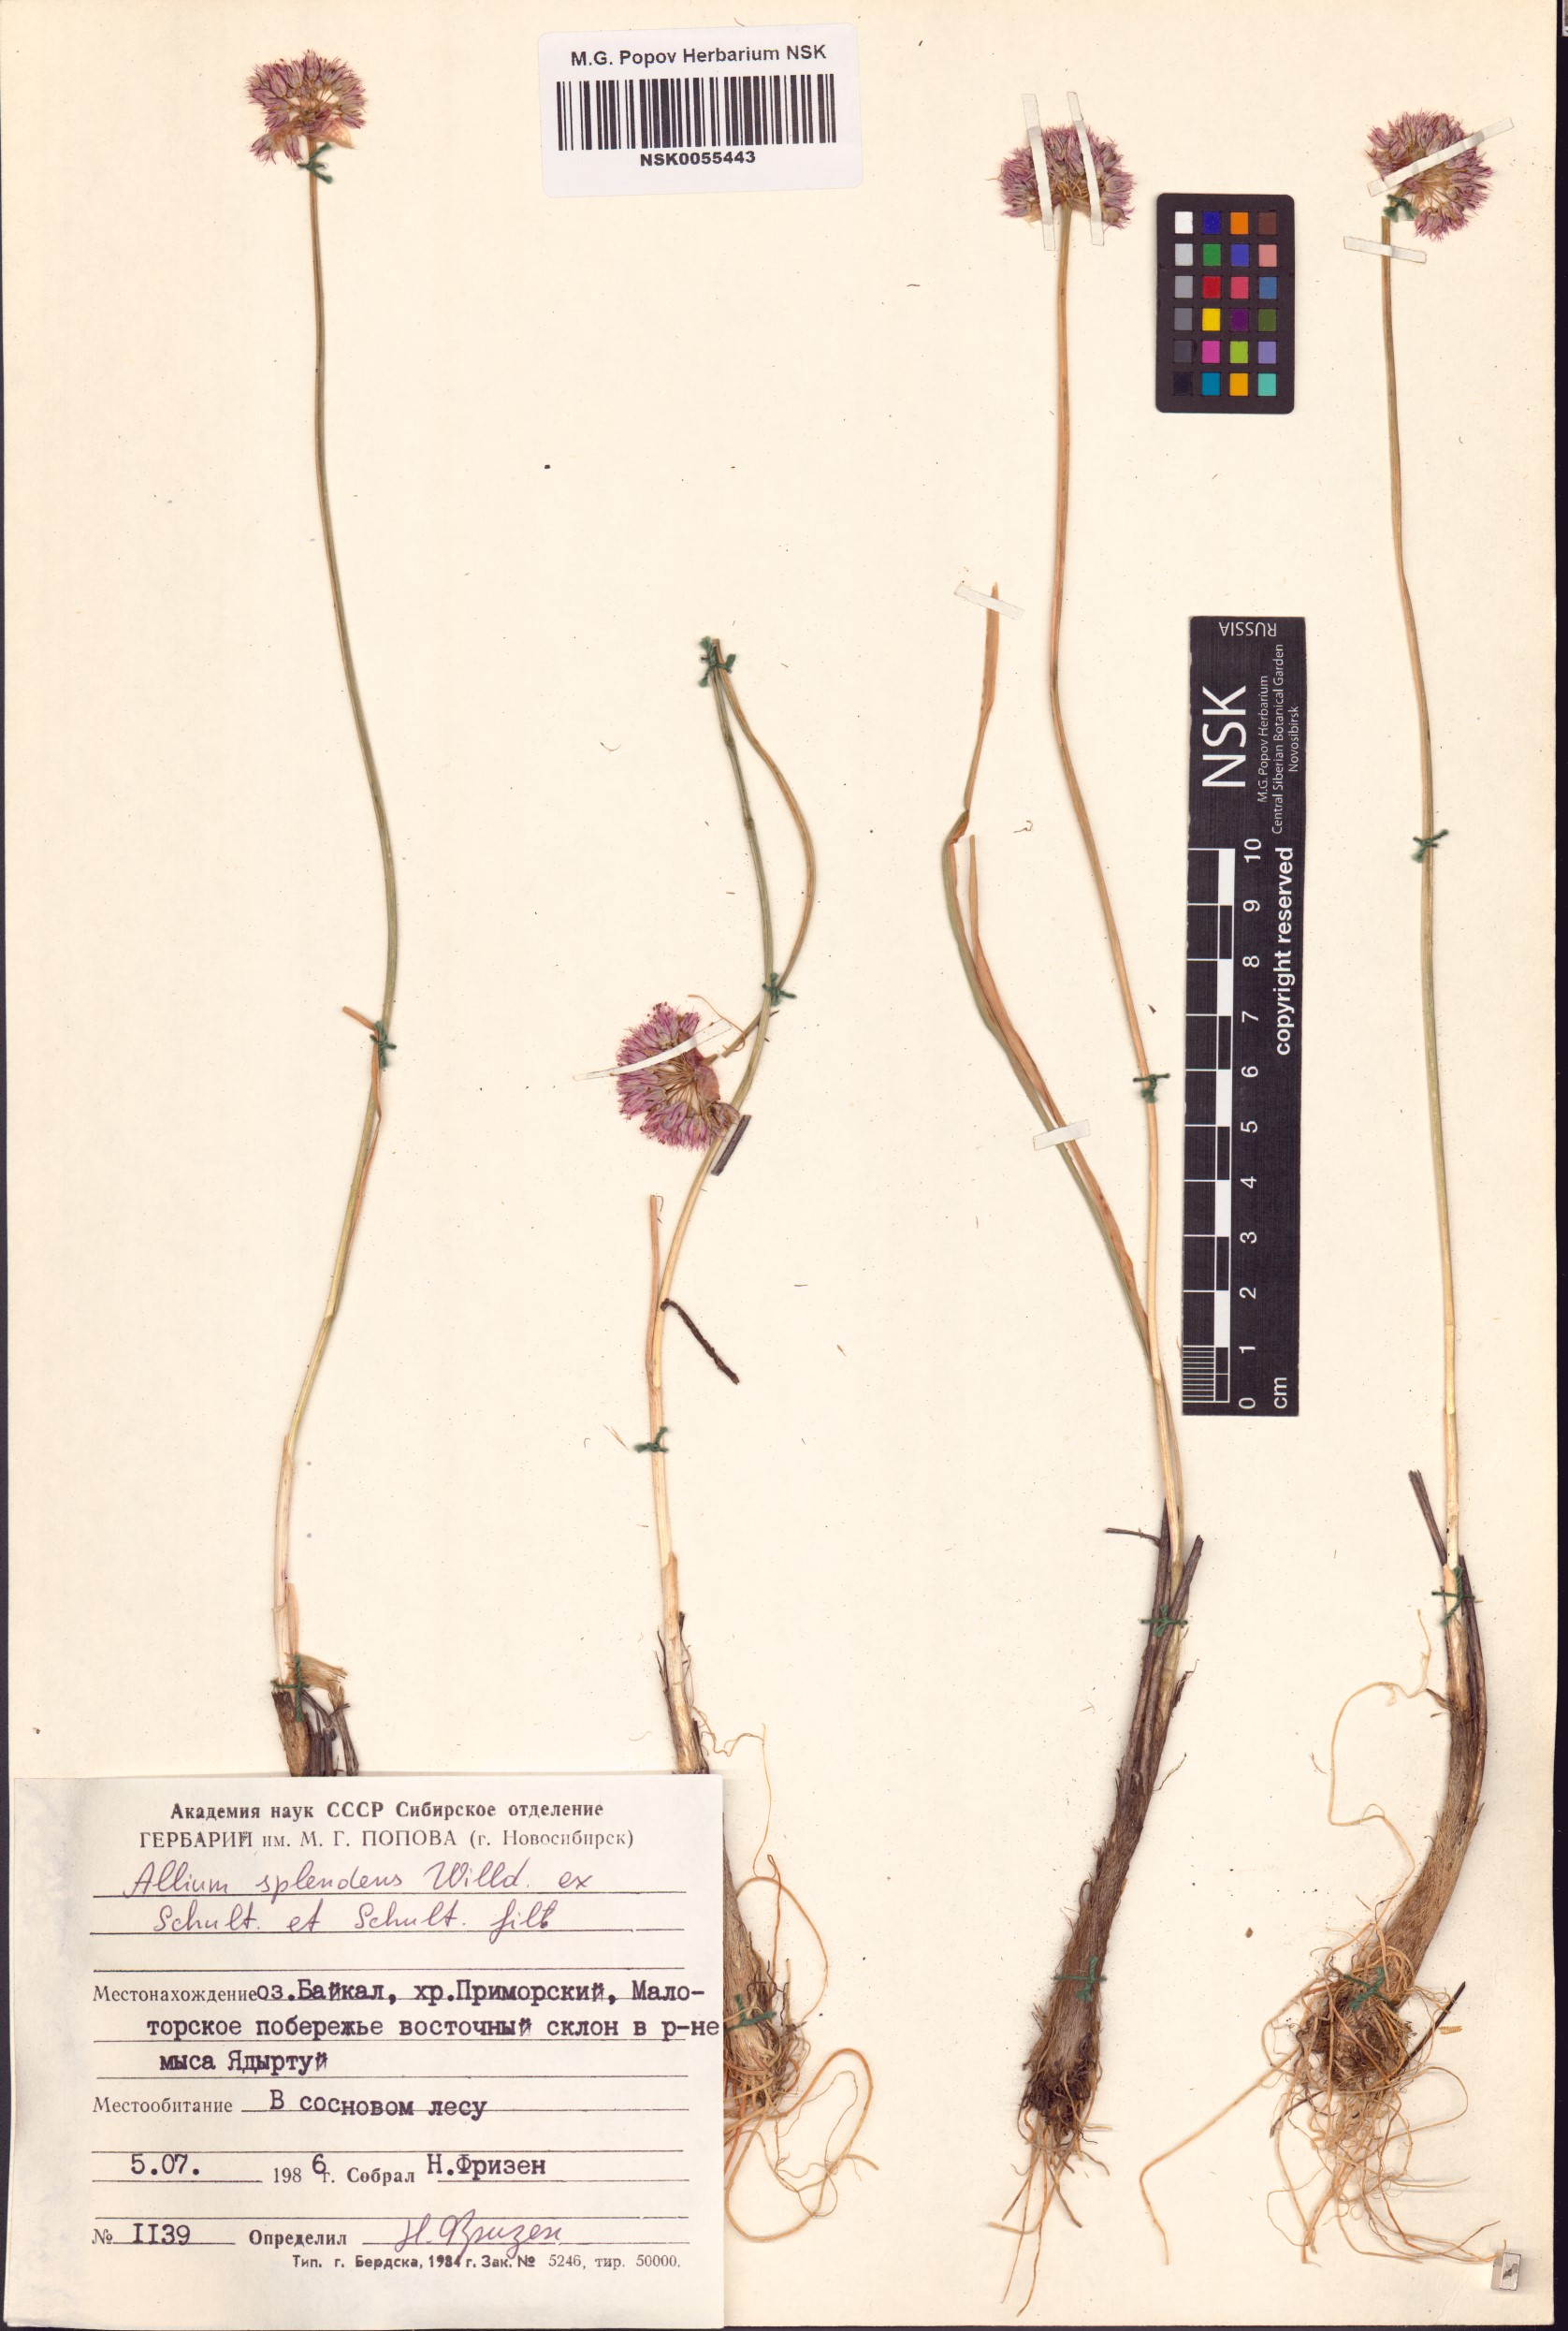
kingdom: Plantae
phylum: Tracheophyta
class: Liliopsida
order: Asparagales
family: Amaryllidaceae
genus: Allium
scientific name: Allium splendens
